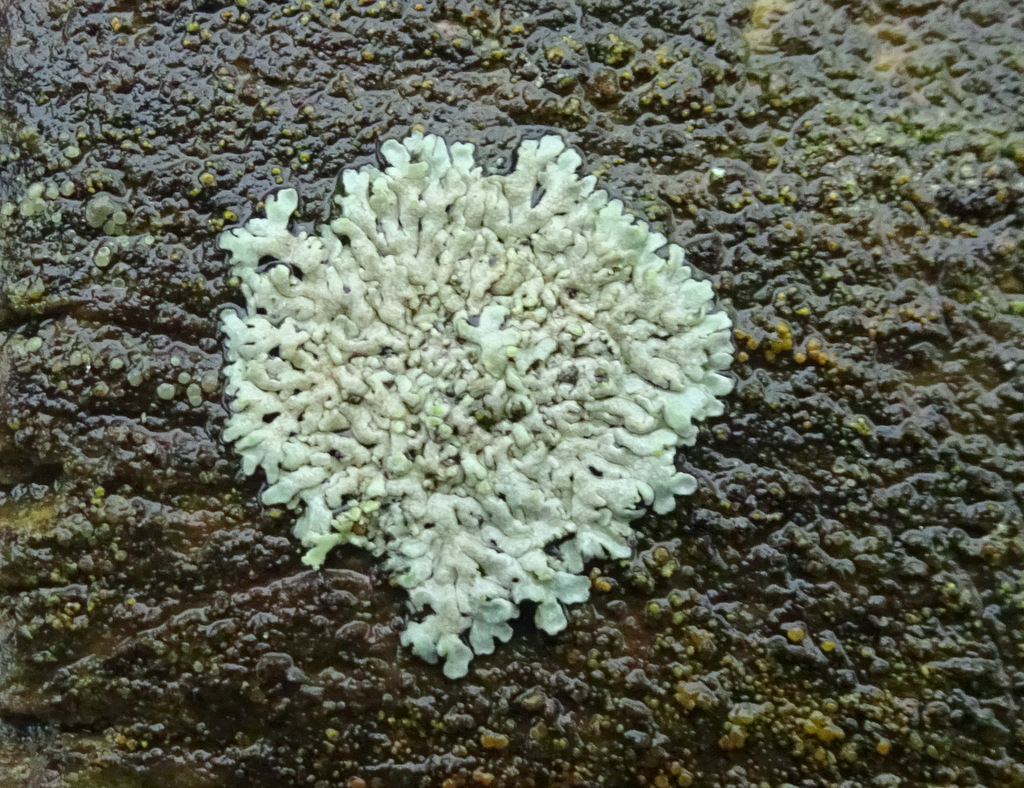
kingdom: Fungi
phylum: Ascomycota
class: Lecanoromycetes
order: Caliciales
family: Physciaceae
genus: Physcia
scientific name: Physcia caesia
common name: blågrå rosetlav
